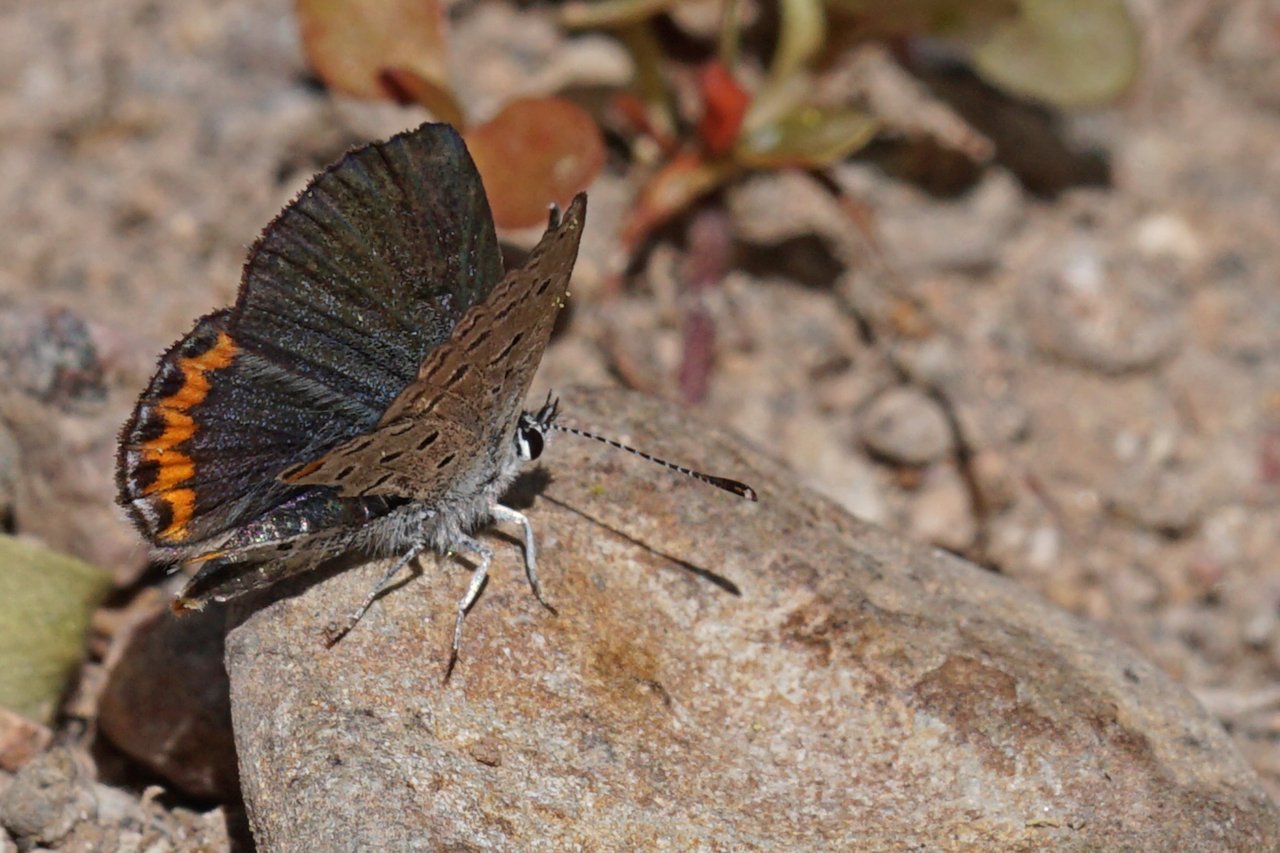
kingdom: Animalia
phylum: Arthropoda
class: Insecta
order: Lepidoptera
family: Lycaenidae
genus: Plebejus
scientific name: Plebejus acmon
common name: Acmon Blue
